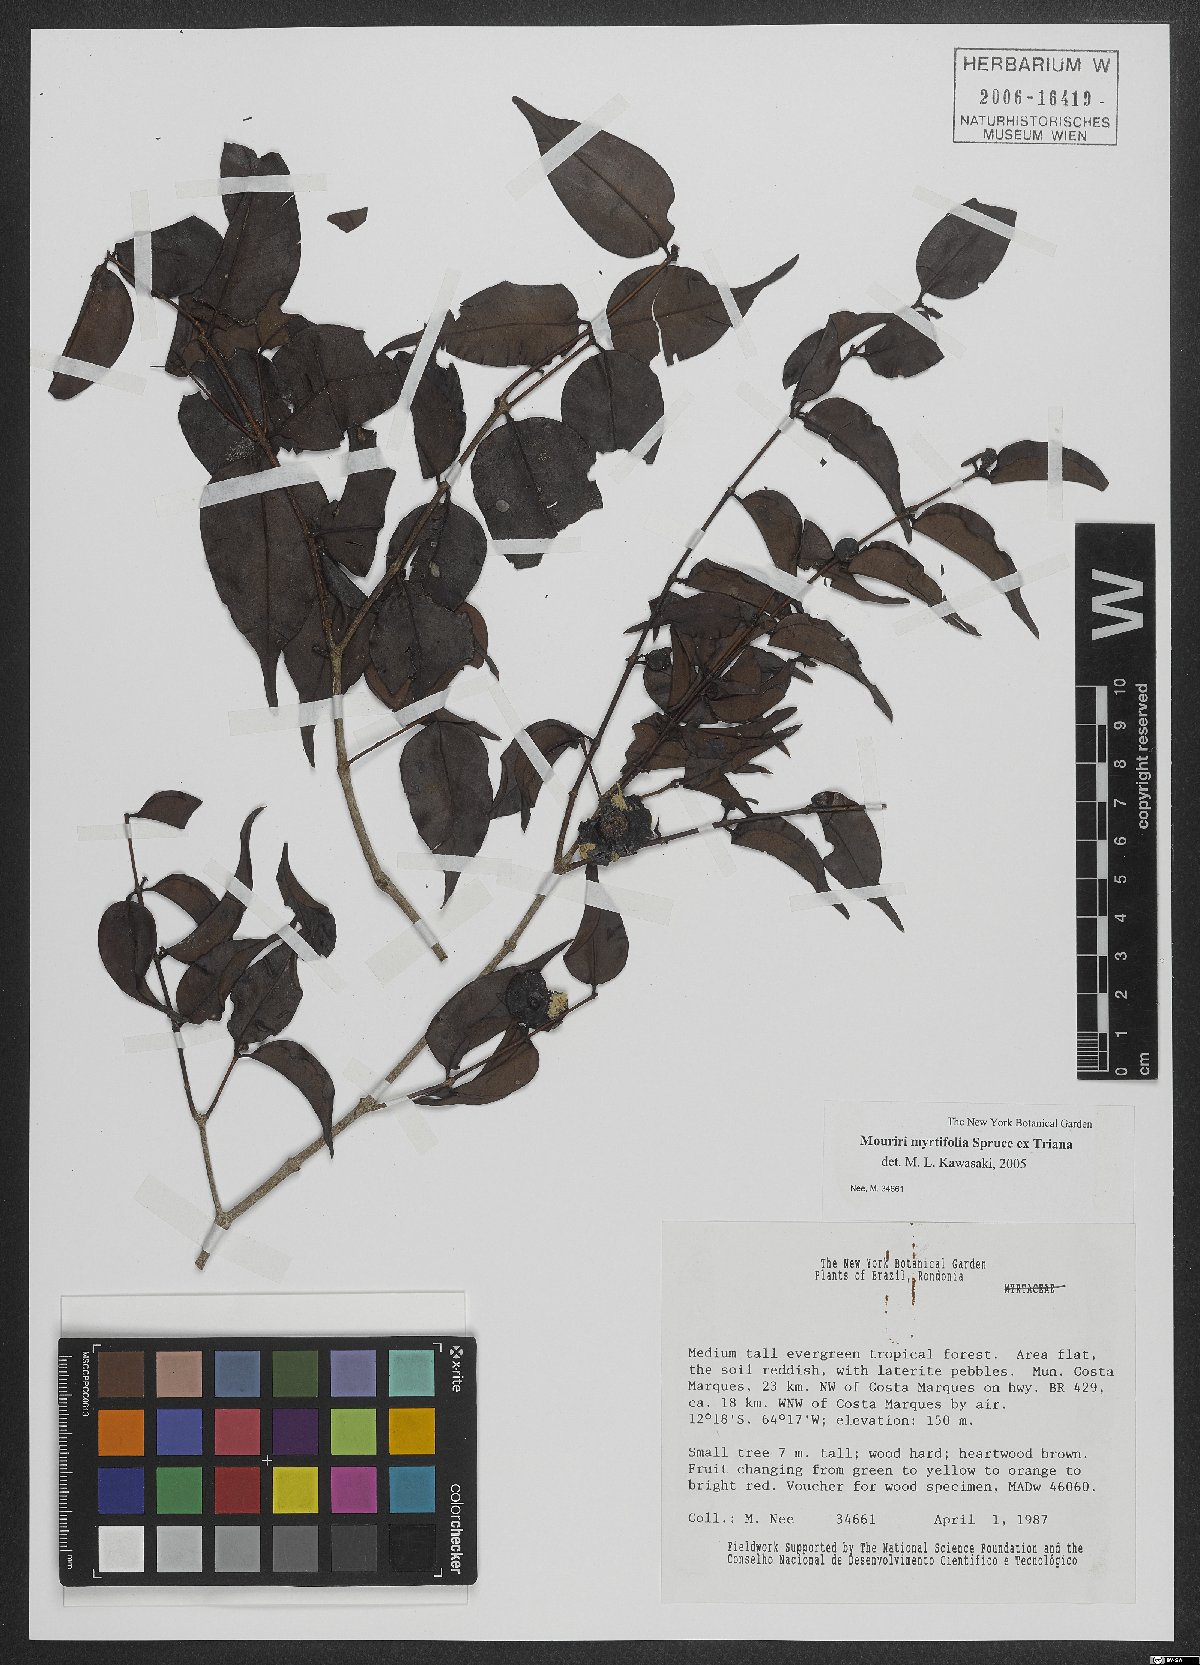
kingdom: Plantae
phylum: Tracheophyta
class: Magnoliopsida
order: Myrtales
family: Melastomataceae
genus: Mouriri
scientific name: Mouriri myrtifolia
